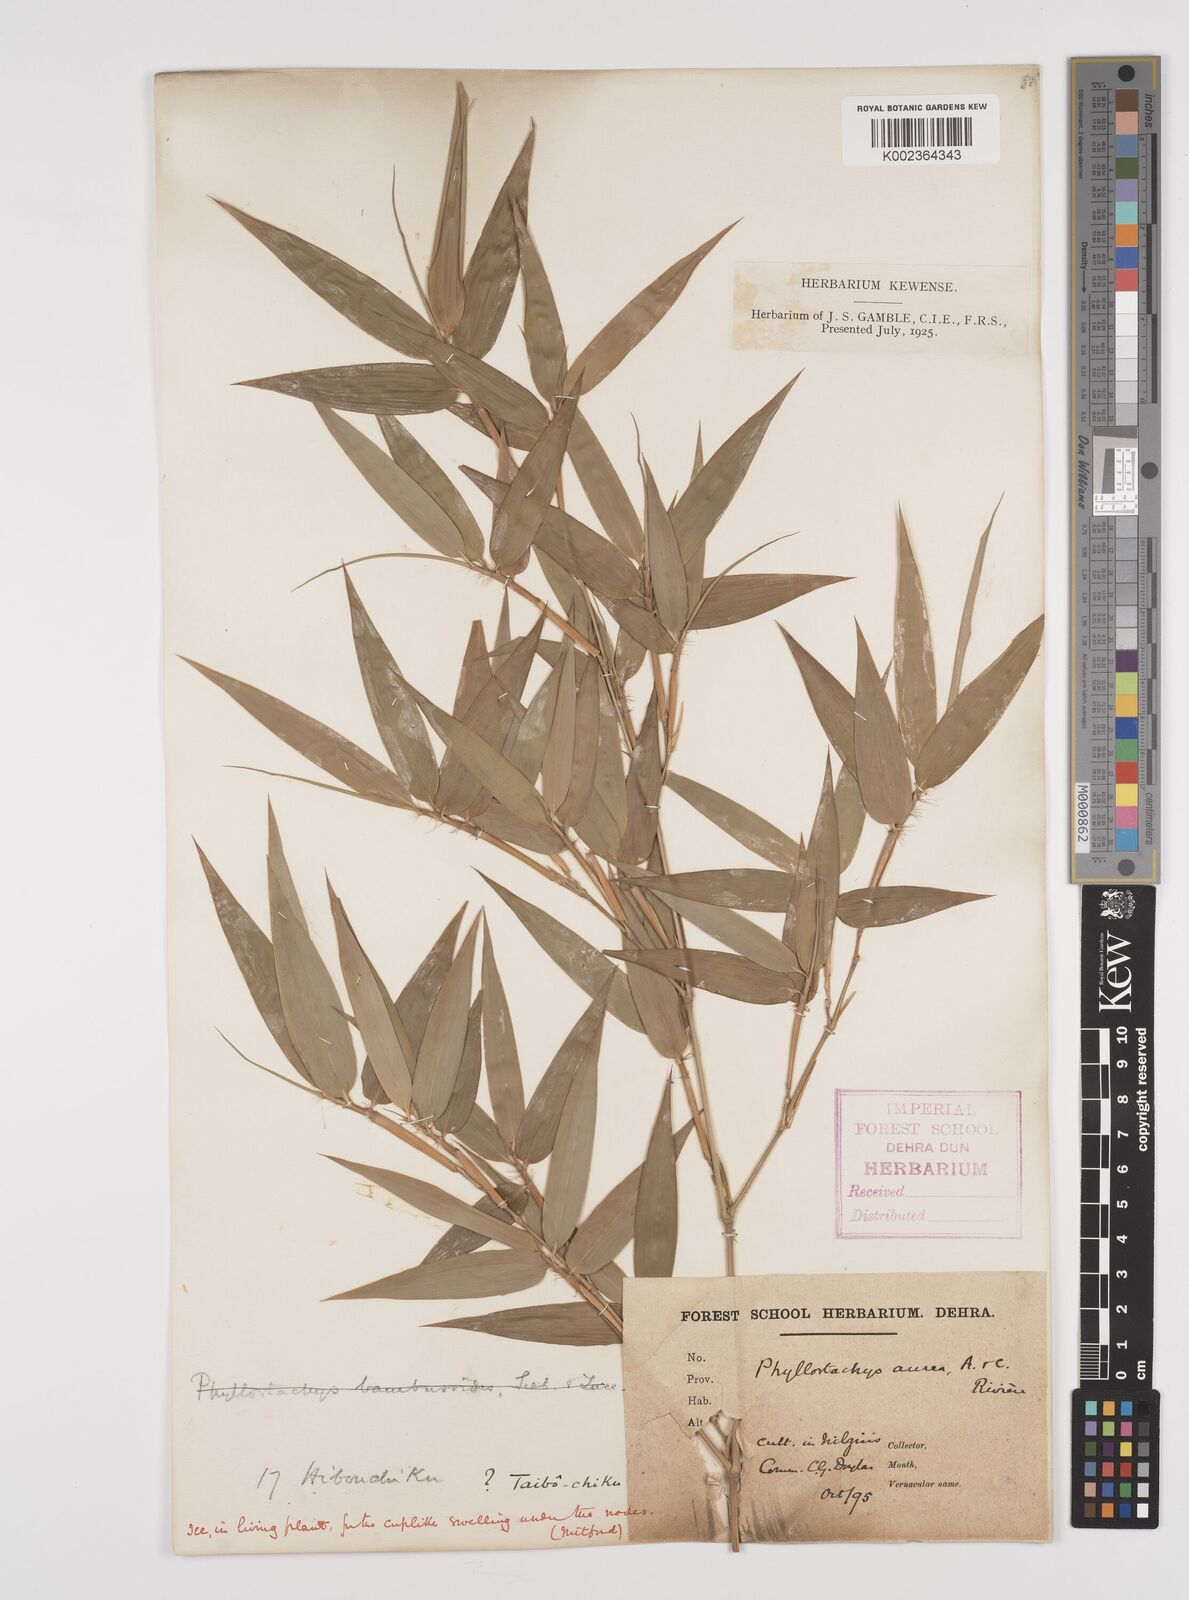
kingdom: Plantae
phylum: Tracheophyta
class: Liliopsida
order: Poales
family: Poaceae
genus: Phyllostachys
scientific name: Phyllostachys aurea
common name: Golden bamboo
